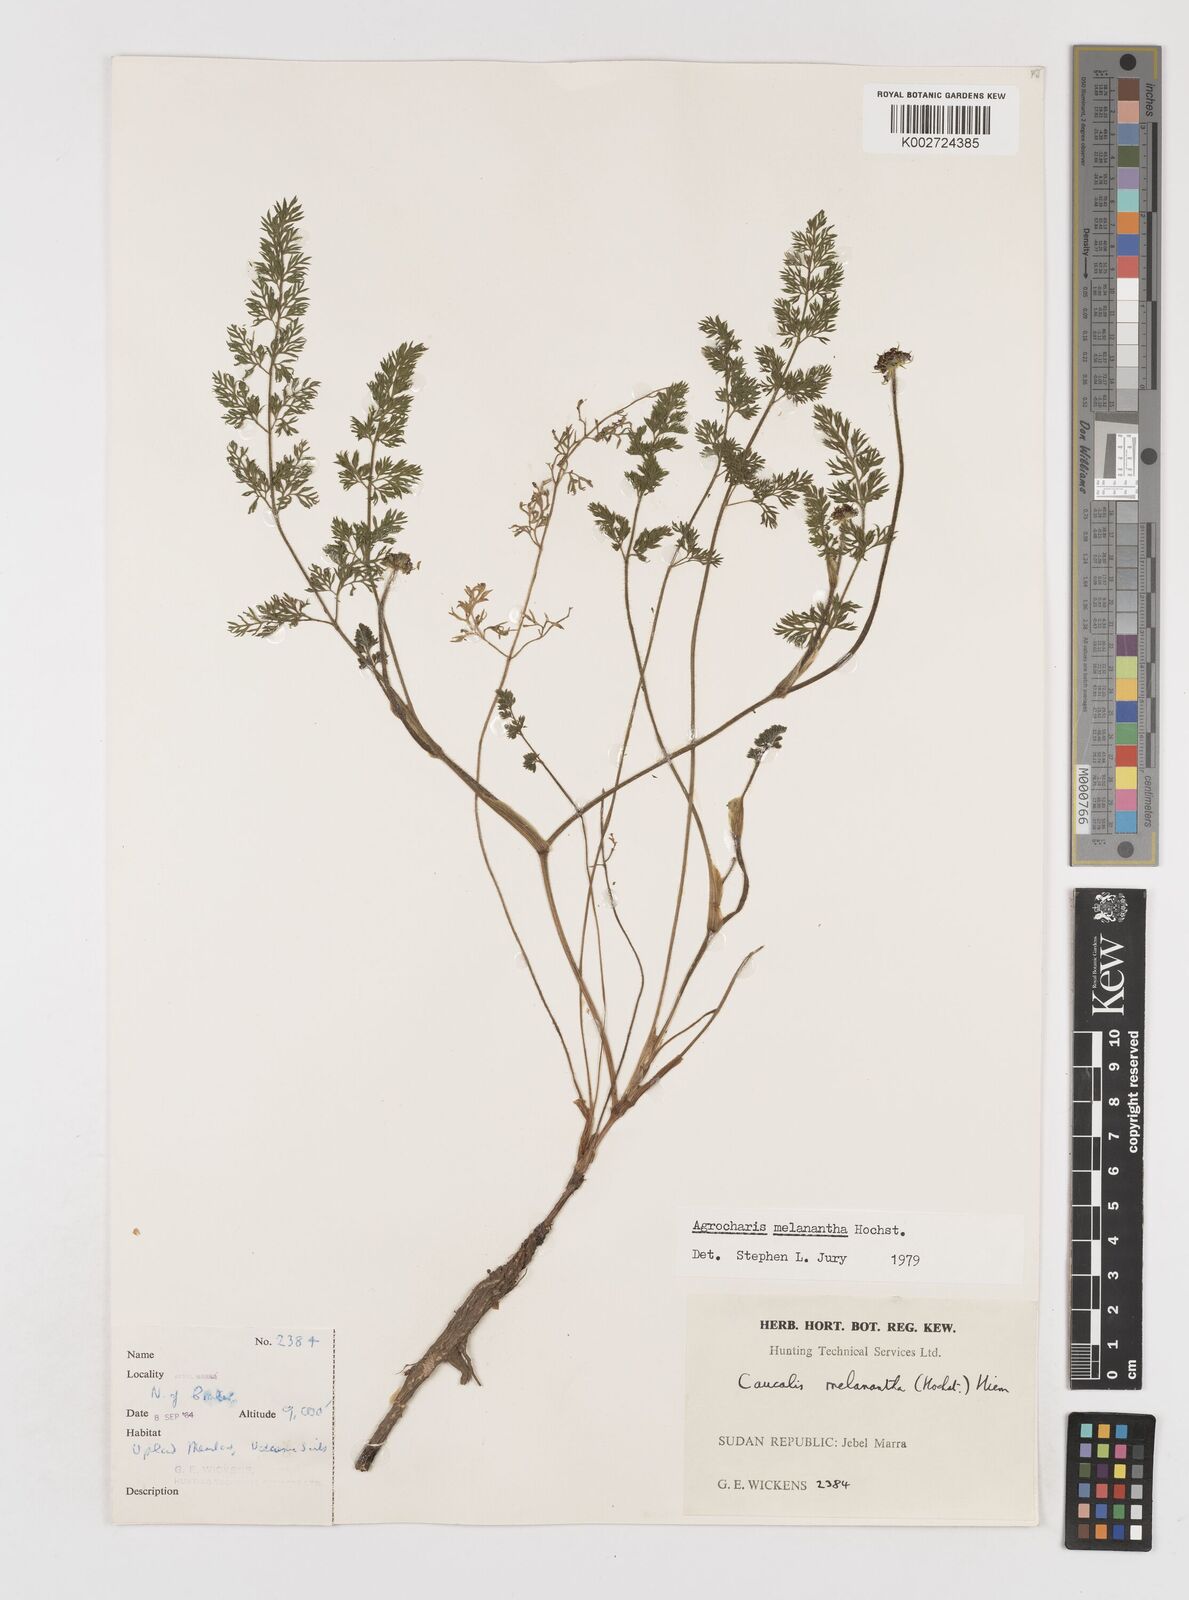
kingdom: Plantae
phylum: Tracheophyta
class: Magnoliopsida
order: Apiales
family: Apiaceae
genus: Daucus
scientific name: Daucus melananthus
